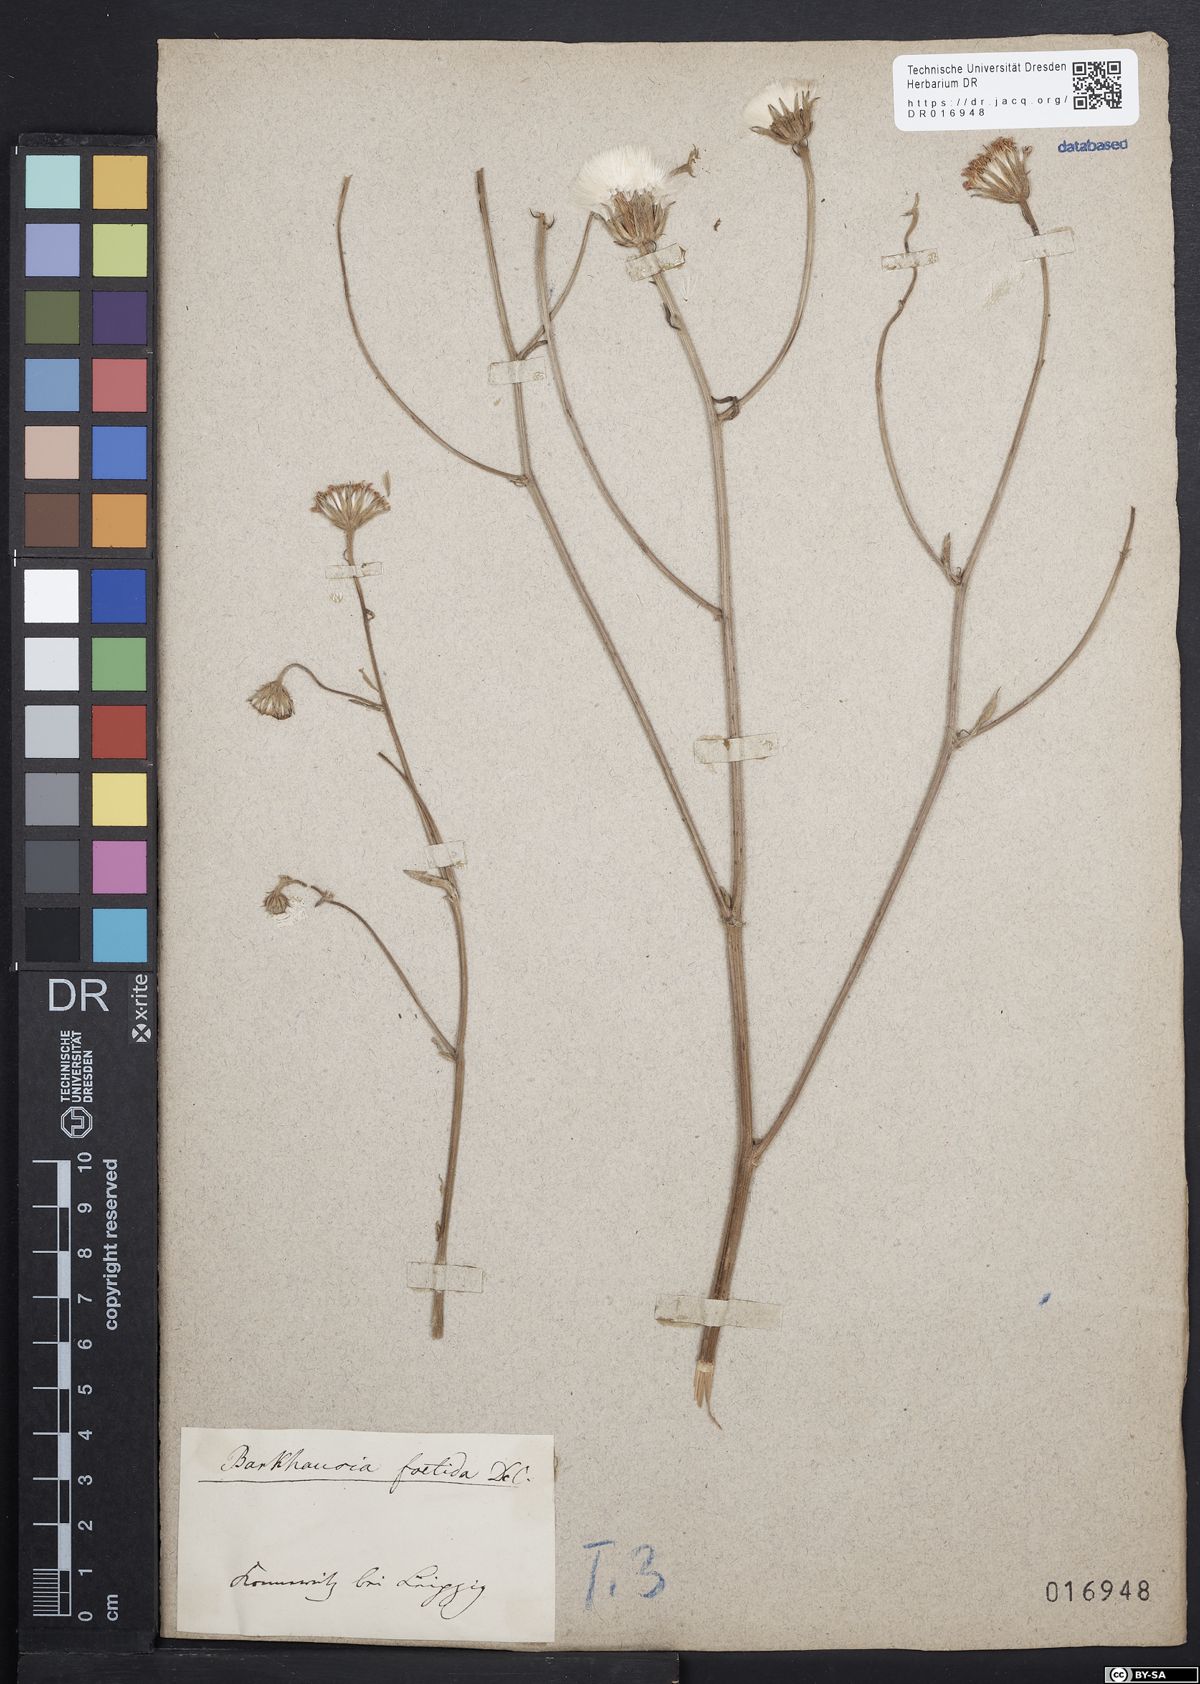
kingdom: Plantae
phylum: Tracheophyta
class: Magnoliopsida
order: Asterales
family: Asteraceae
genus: Crepis
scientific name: Crepis foetida
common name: Stinking hawk's-beard
